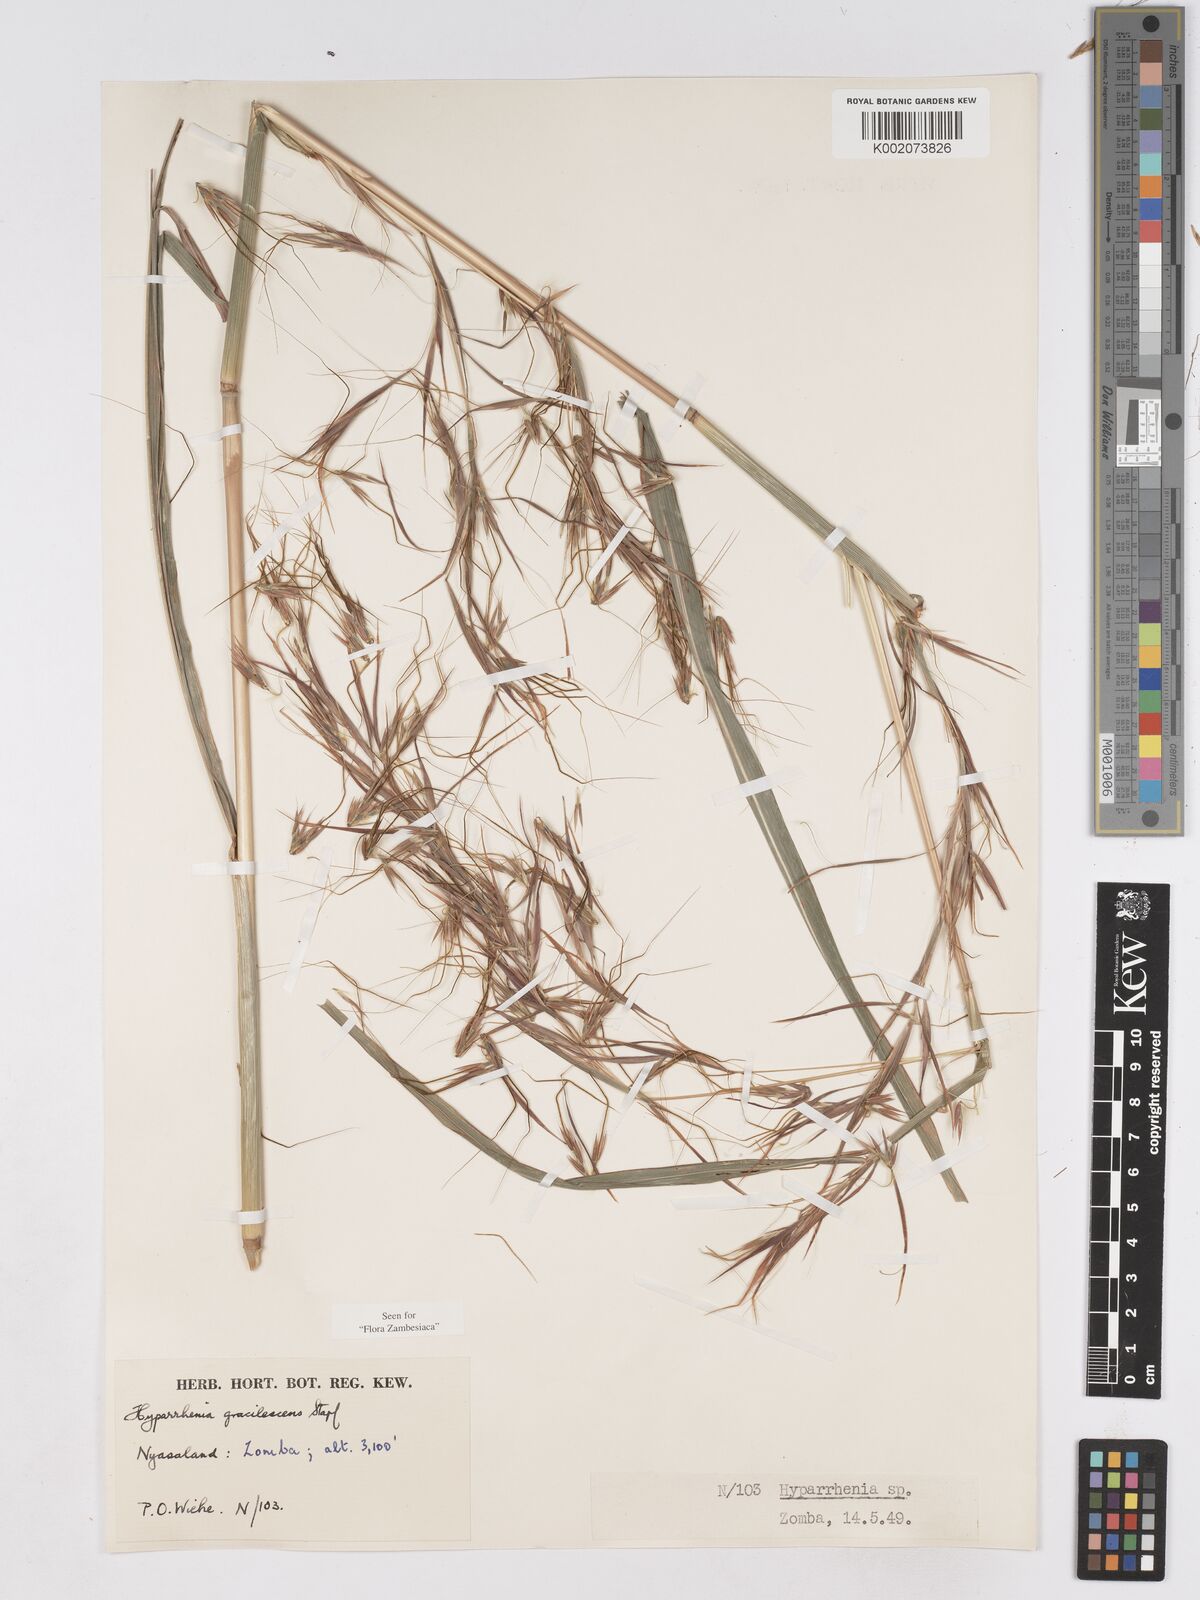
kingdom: Plantae
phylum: Tracheophyta
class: Liliopsida
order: Poales
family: Poaceae
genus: Hyparrhenia
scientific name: Hyparrhenia welwitschii
